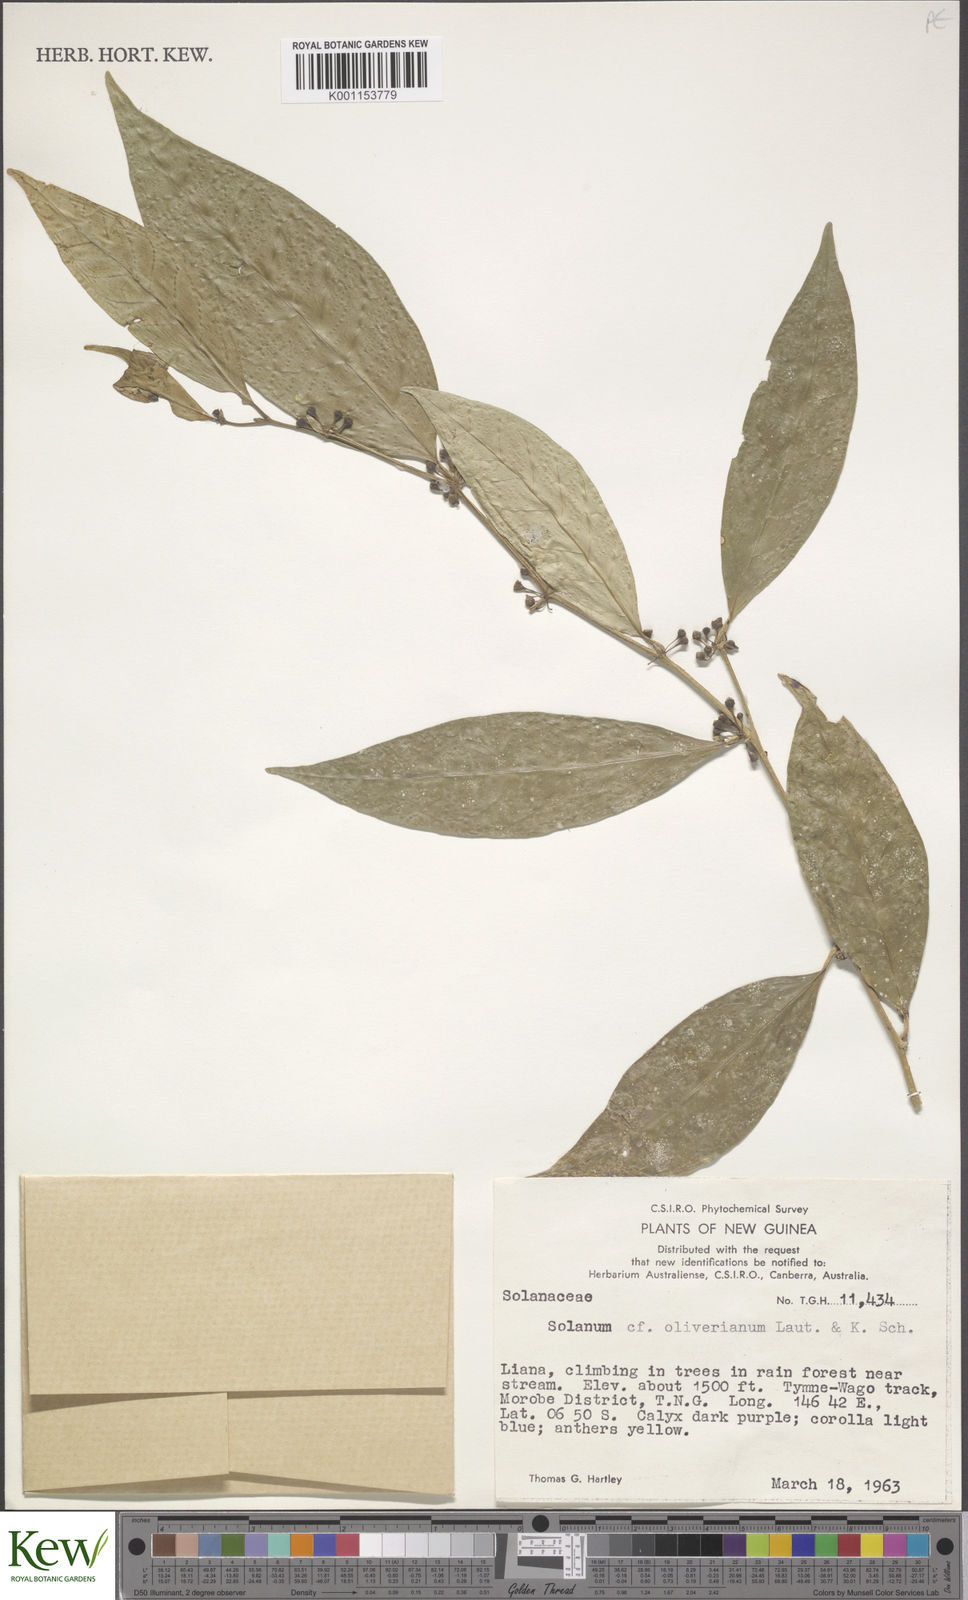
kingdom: Plantae
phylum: Tracheophyta
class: Magnoliopsida
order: Solanales
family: Solanaceae
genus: Lycianthes
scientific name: Lycianthes oliveriana
